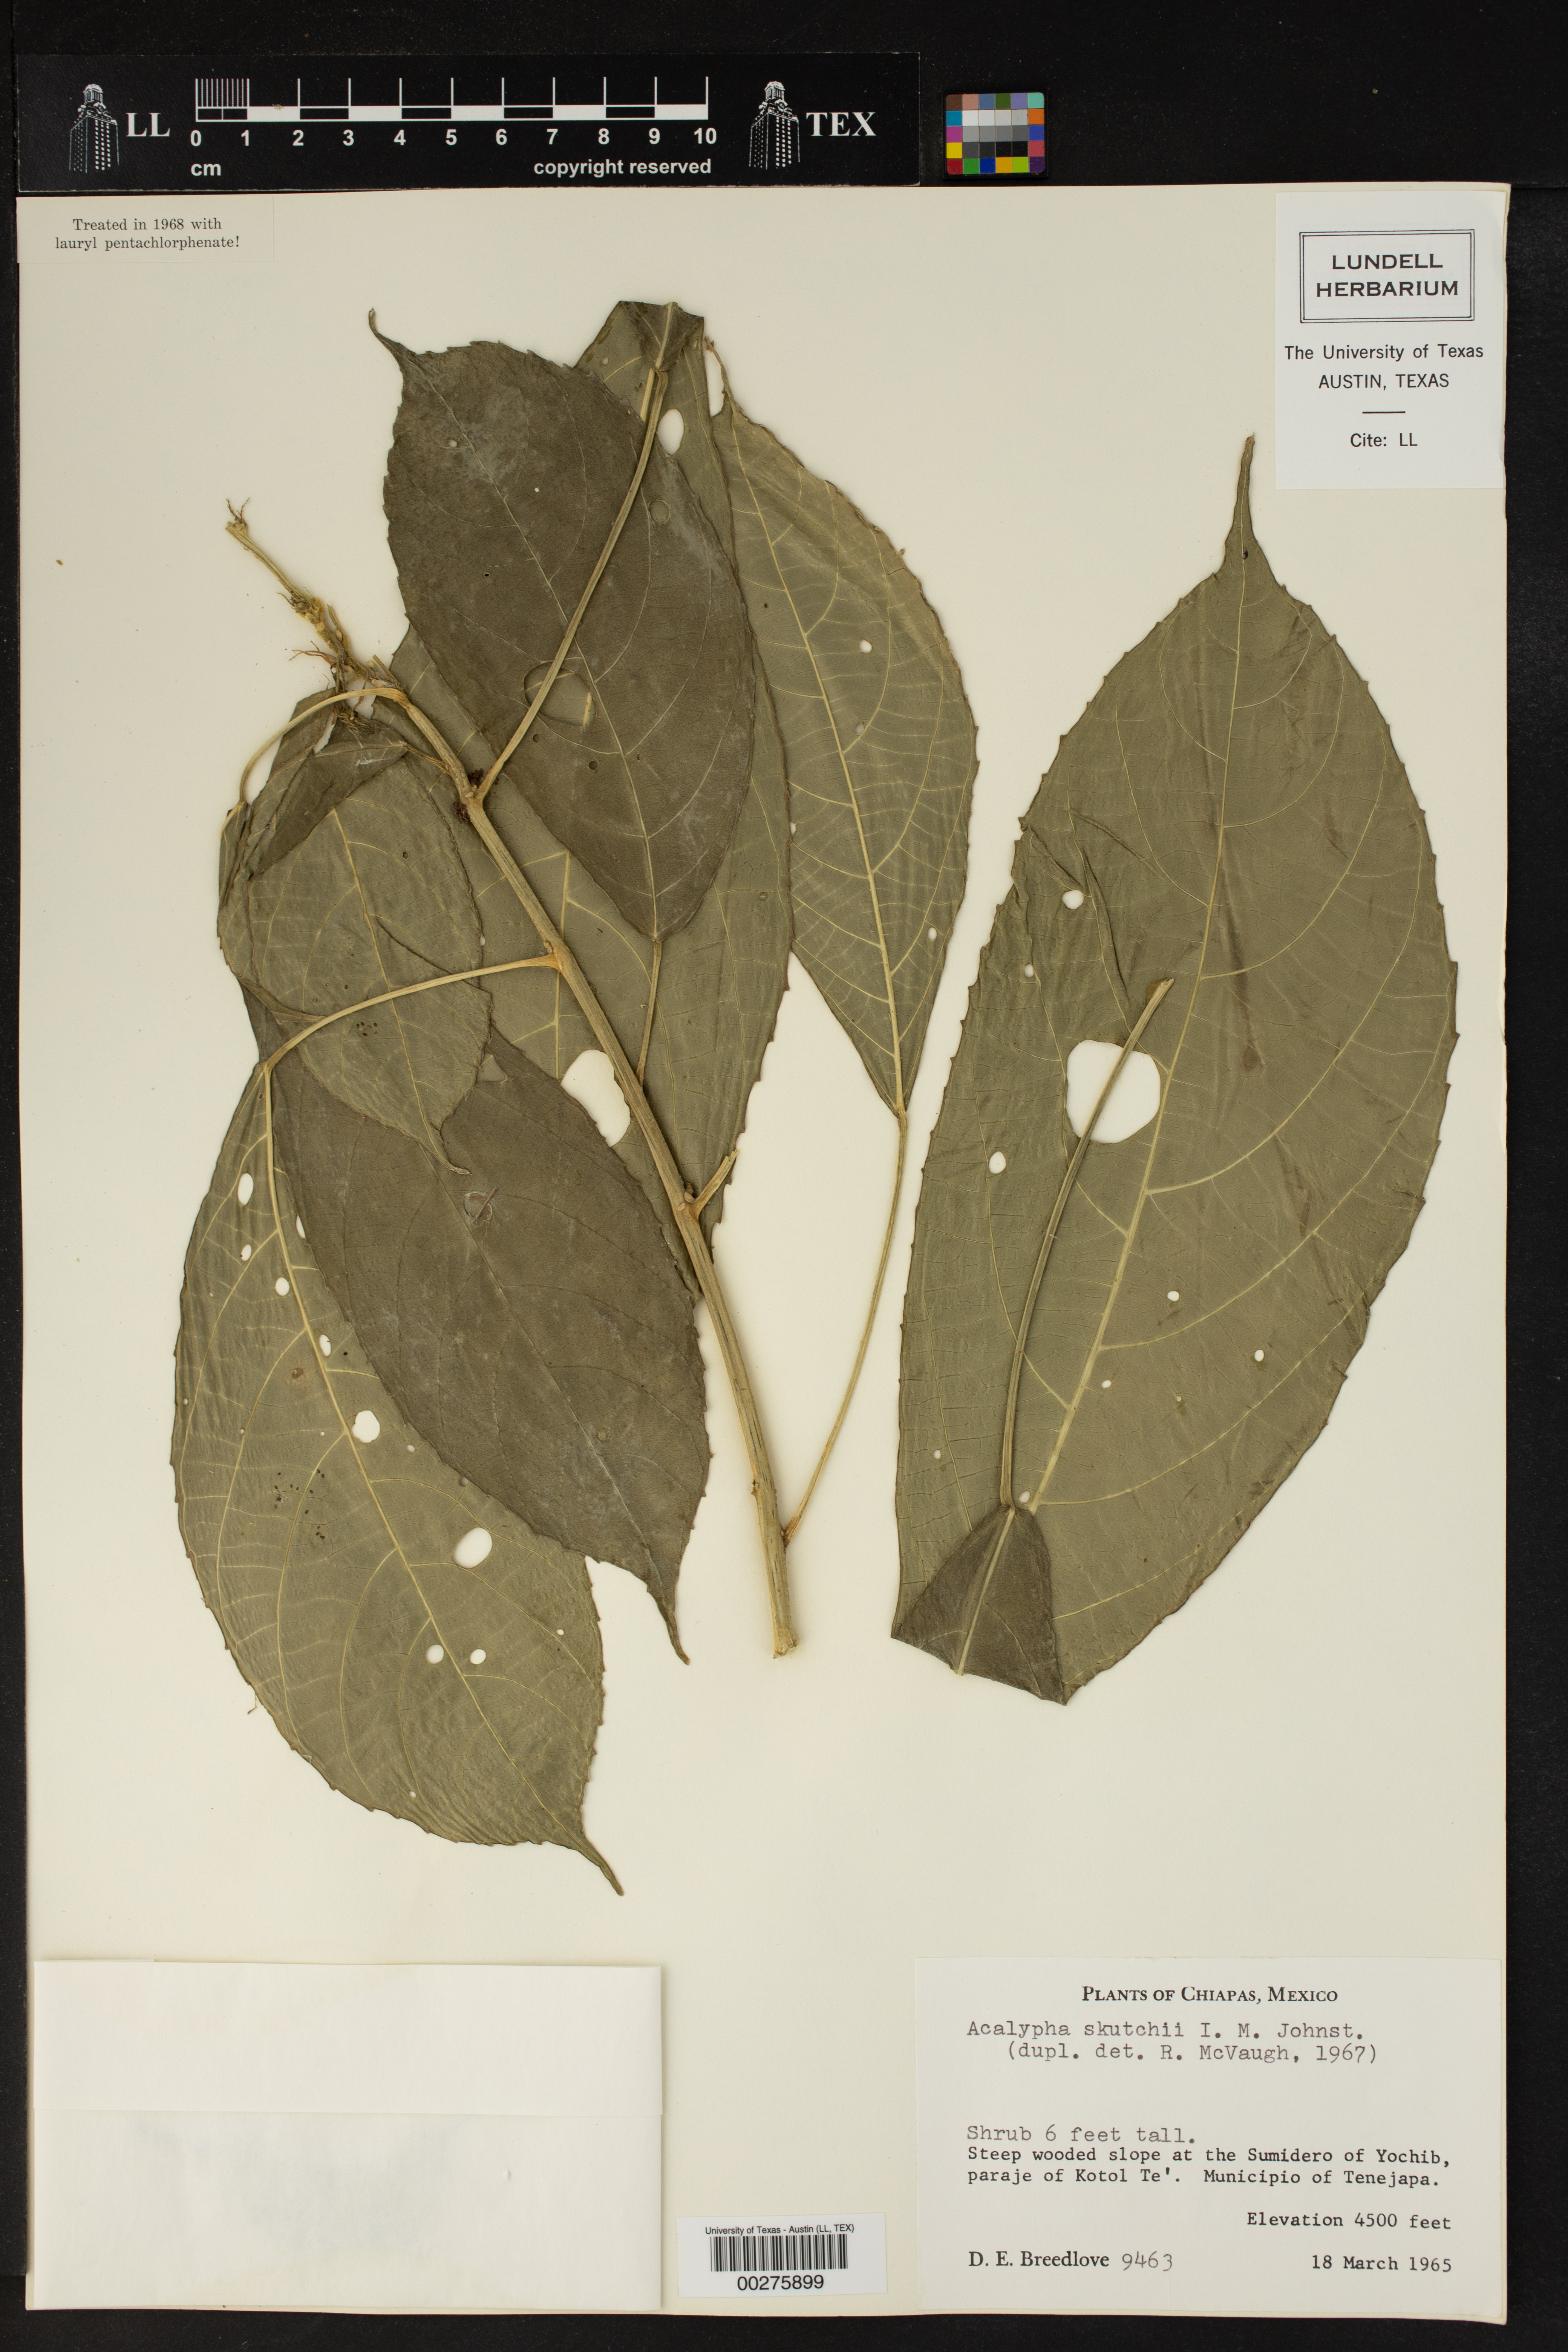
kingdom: Plantae
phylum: Tracheophyta
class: Magnoliopsida
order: Malpighiales
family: Euphorbiaceae
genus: Acalypha
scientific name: Acalypha skutchii
